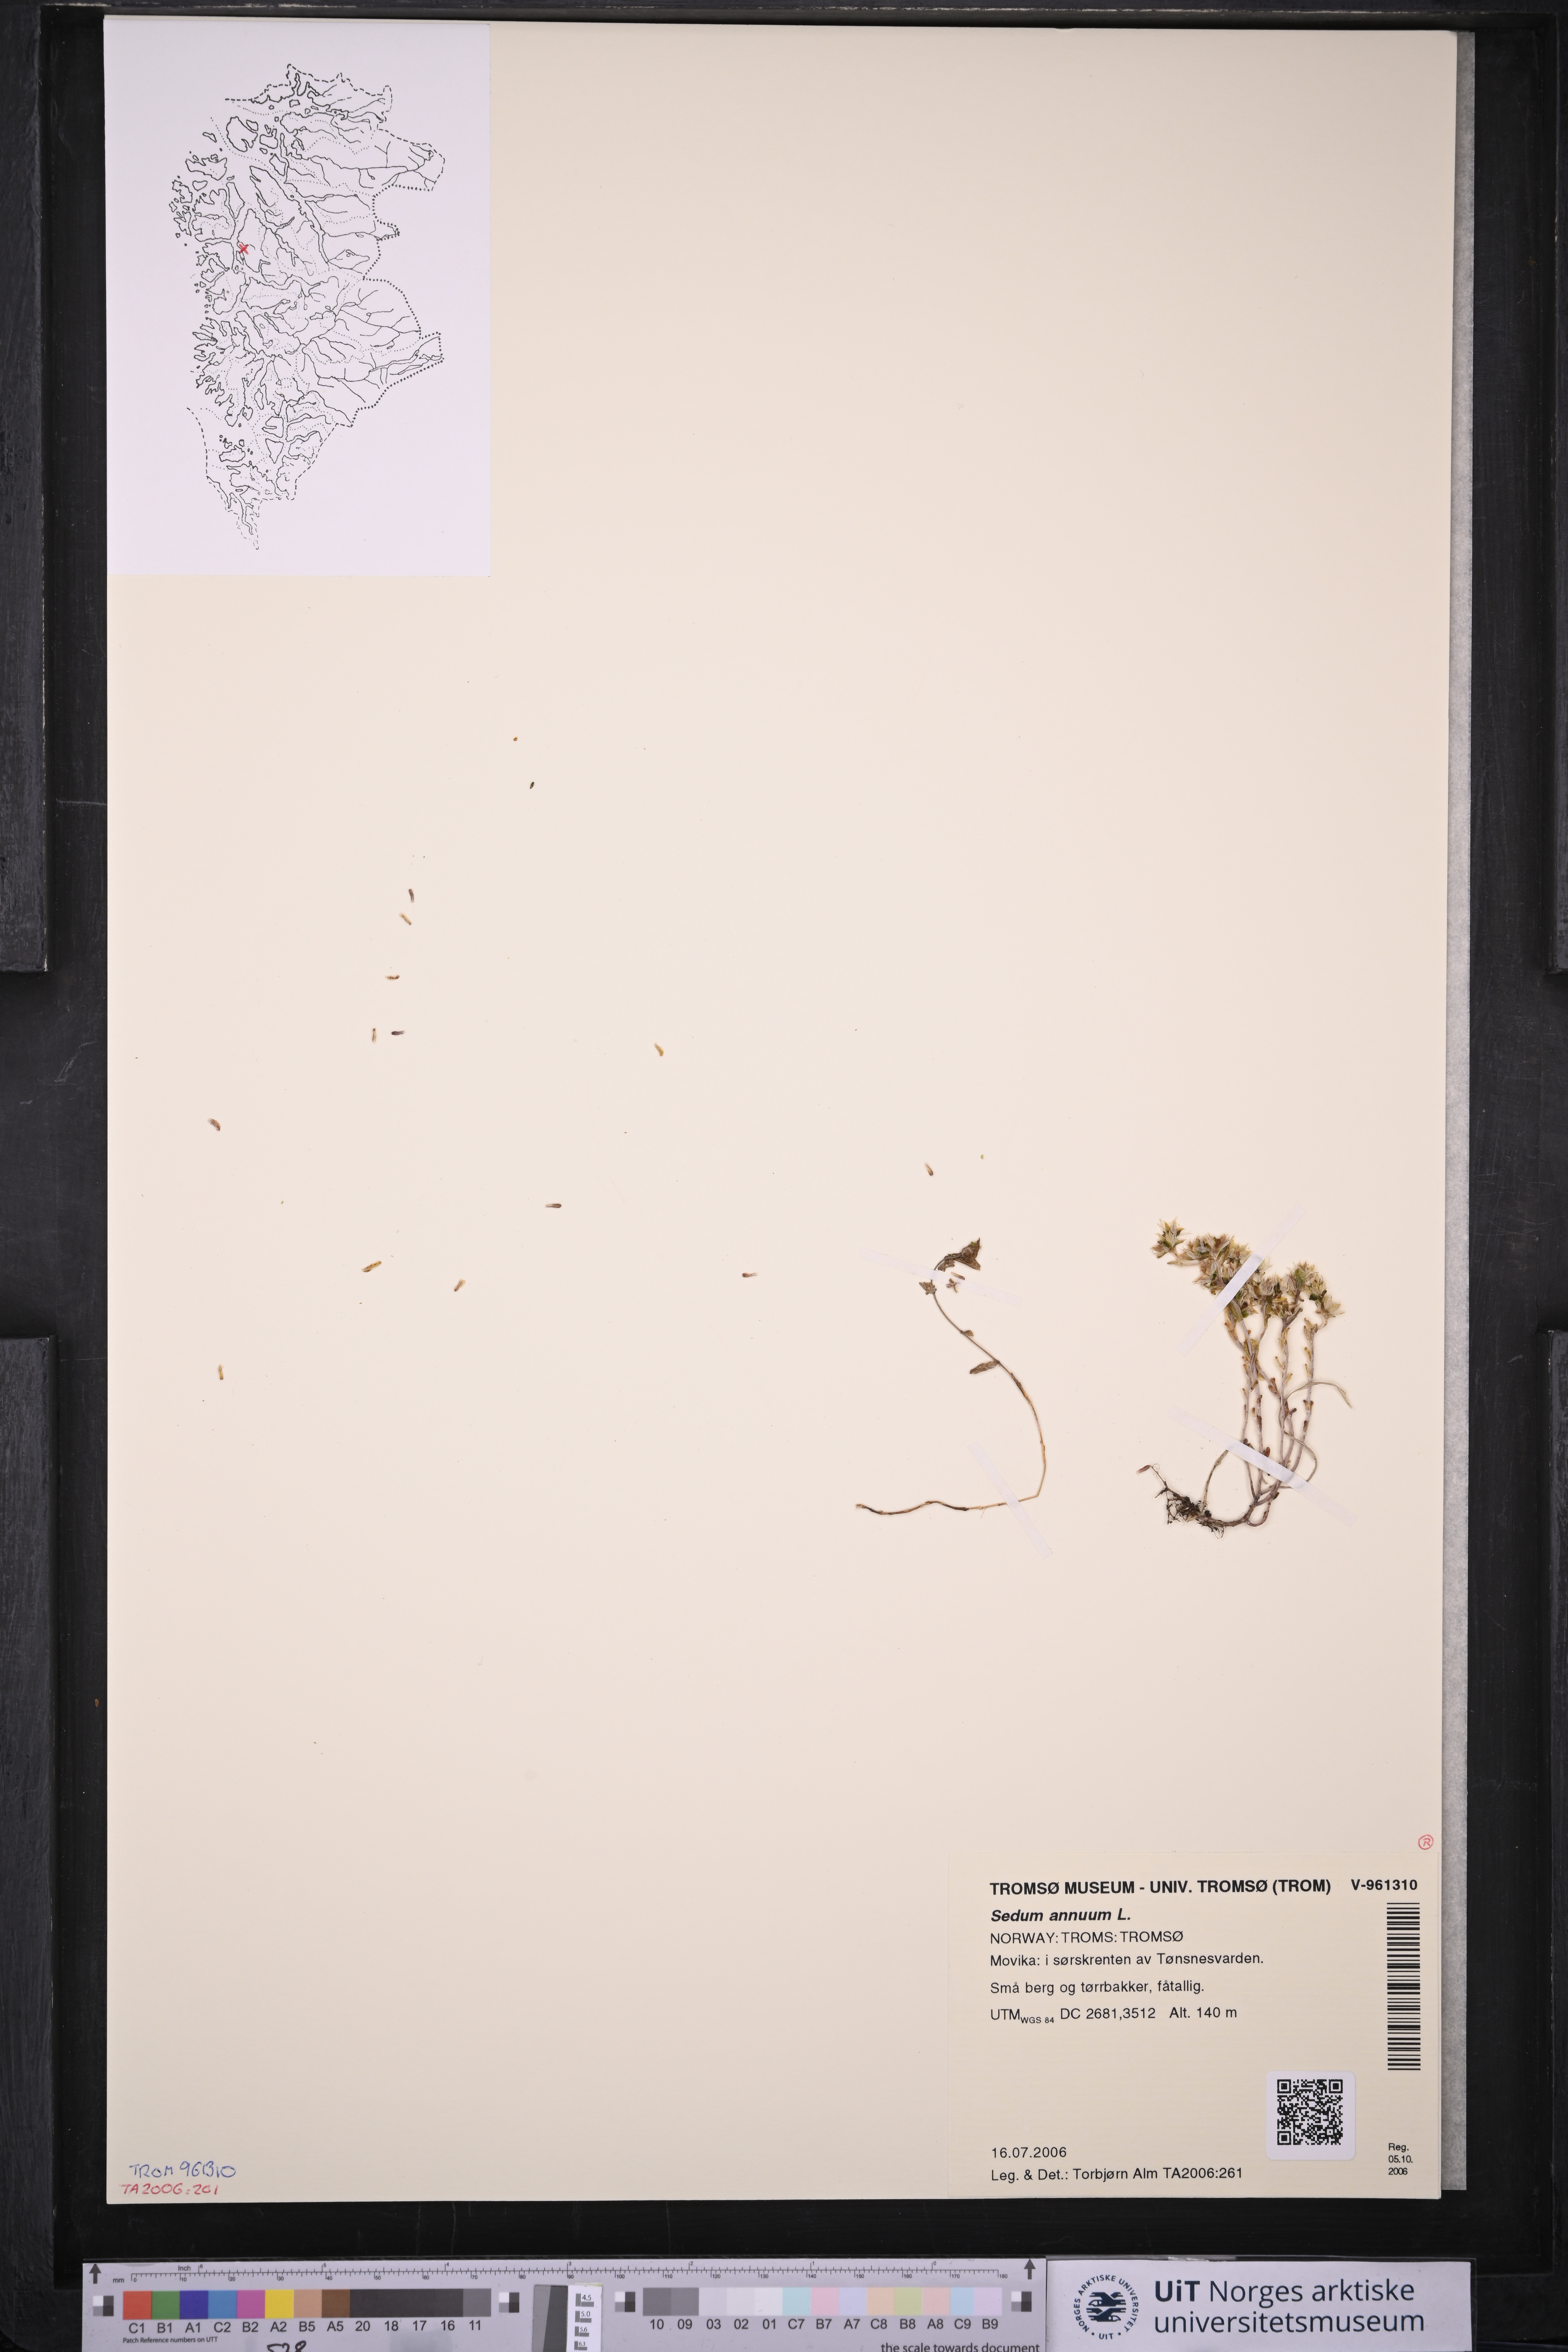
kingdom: Plantae
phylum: Tracheophyta
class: Magnoliopsida
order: Saxifragales
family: Crassulaceae
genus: Sedum
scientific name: Sedum annuum
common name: Annual stonecrop
